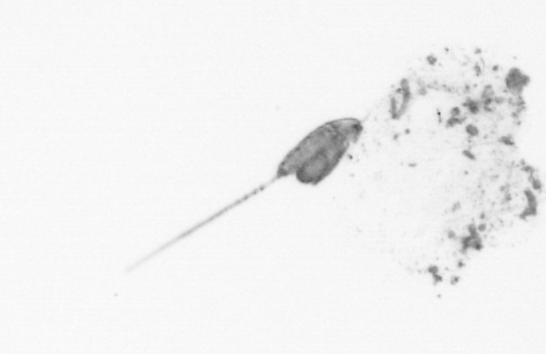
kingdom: Animalia
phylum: Arthropoda
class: Copepoda
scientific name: Copepoda
